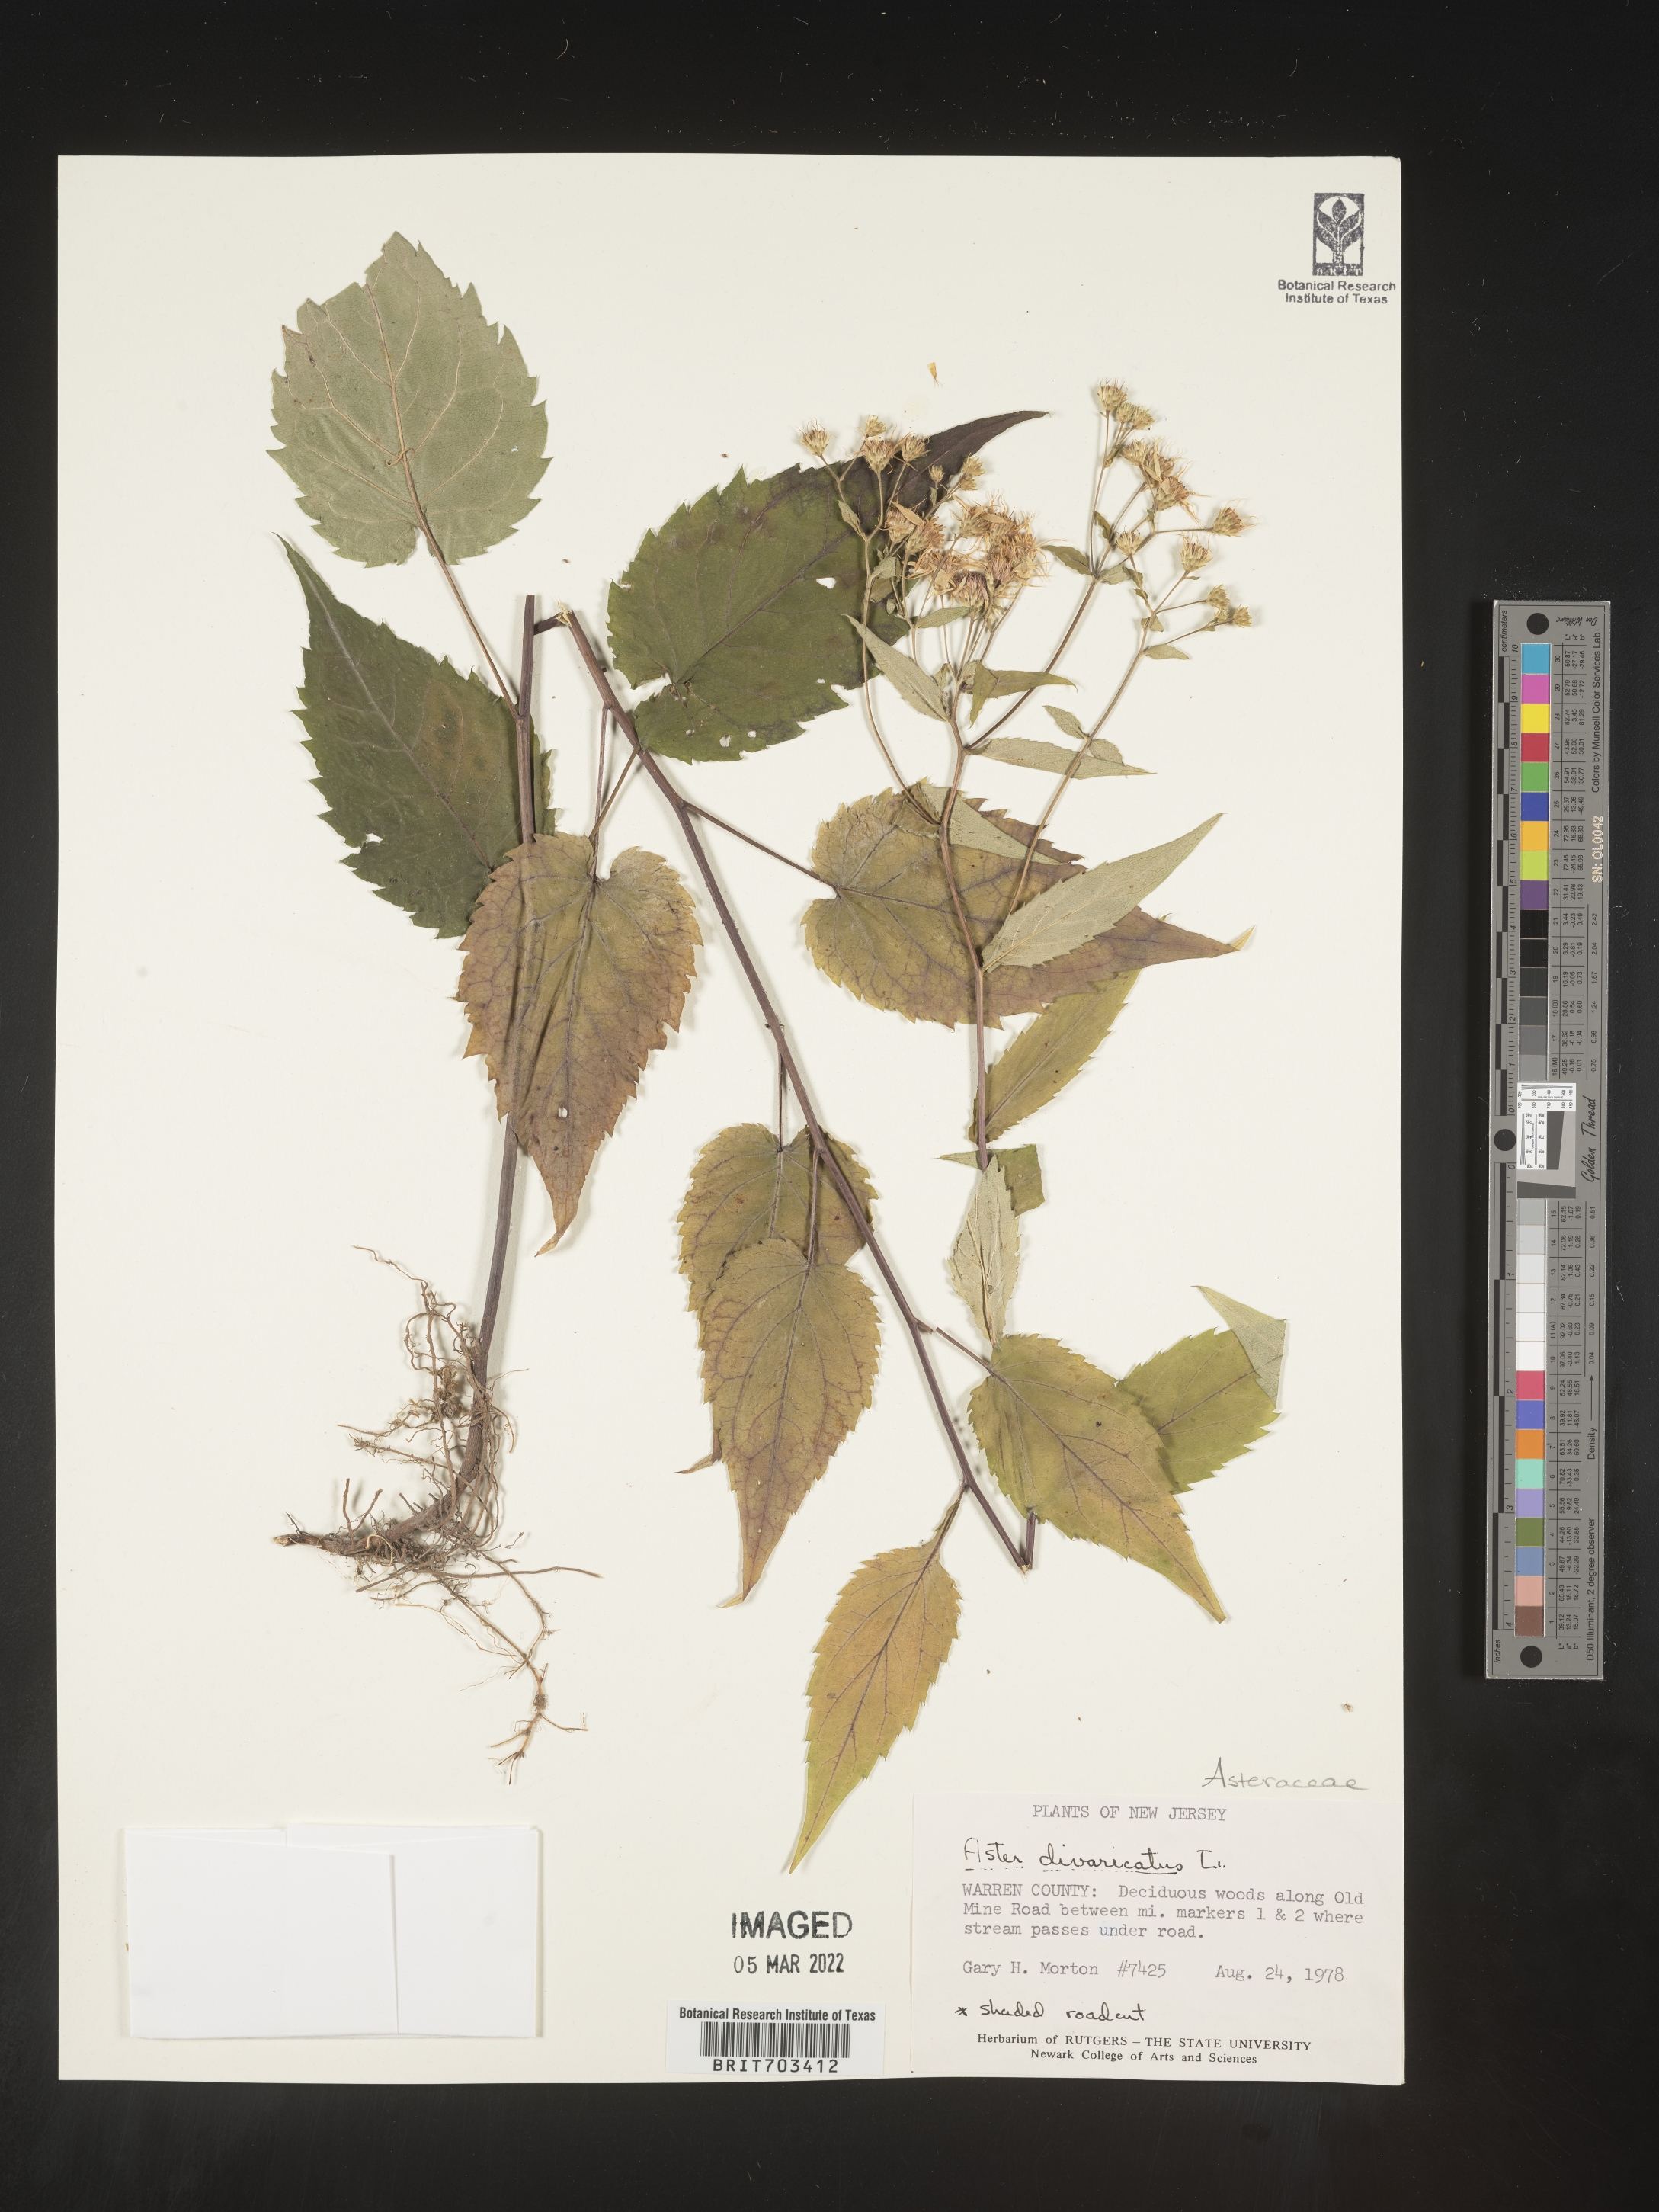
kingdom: Plantae
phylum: Tracheophyta
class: Magnoliopsida
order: Asterales
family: Asteraceae
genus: Eurybia
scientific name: Eurybia divaricata
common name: White wood aster
